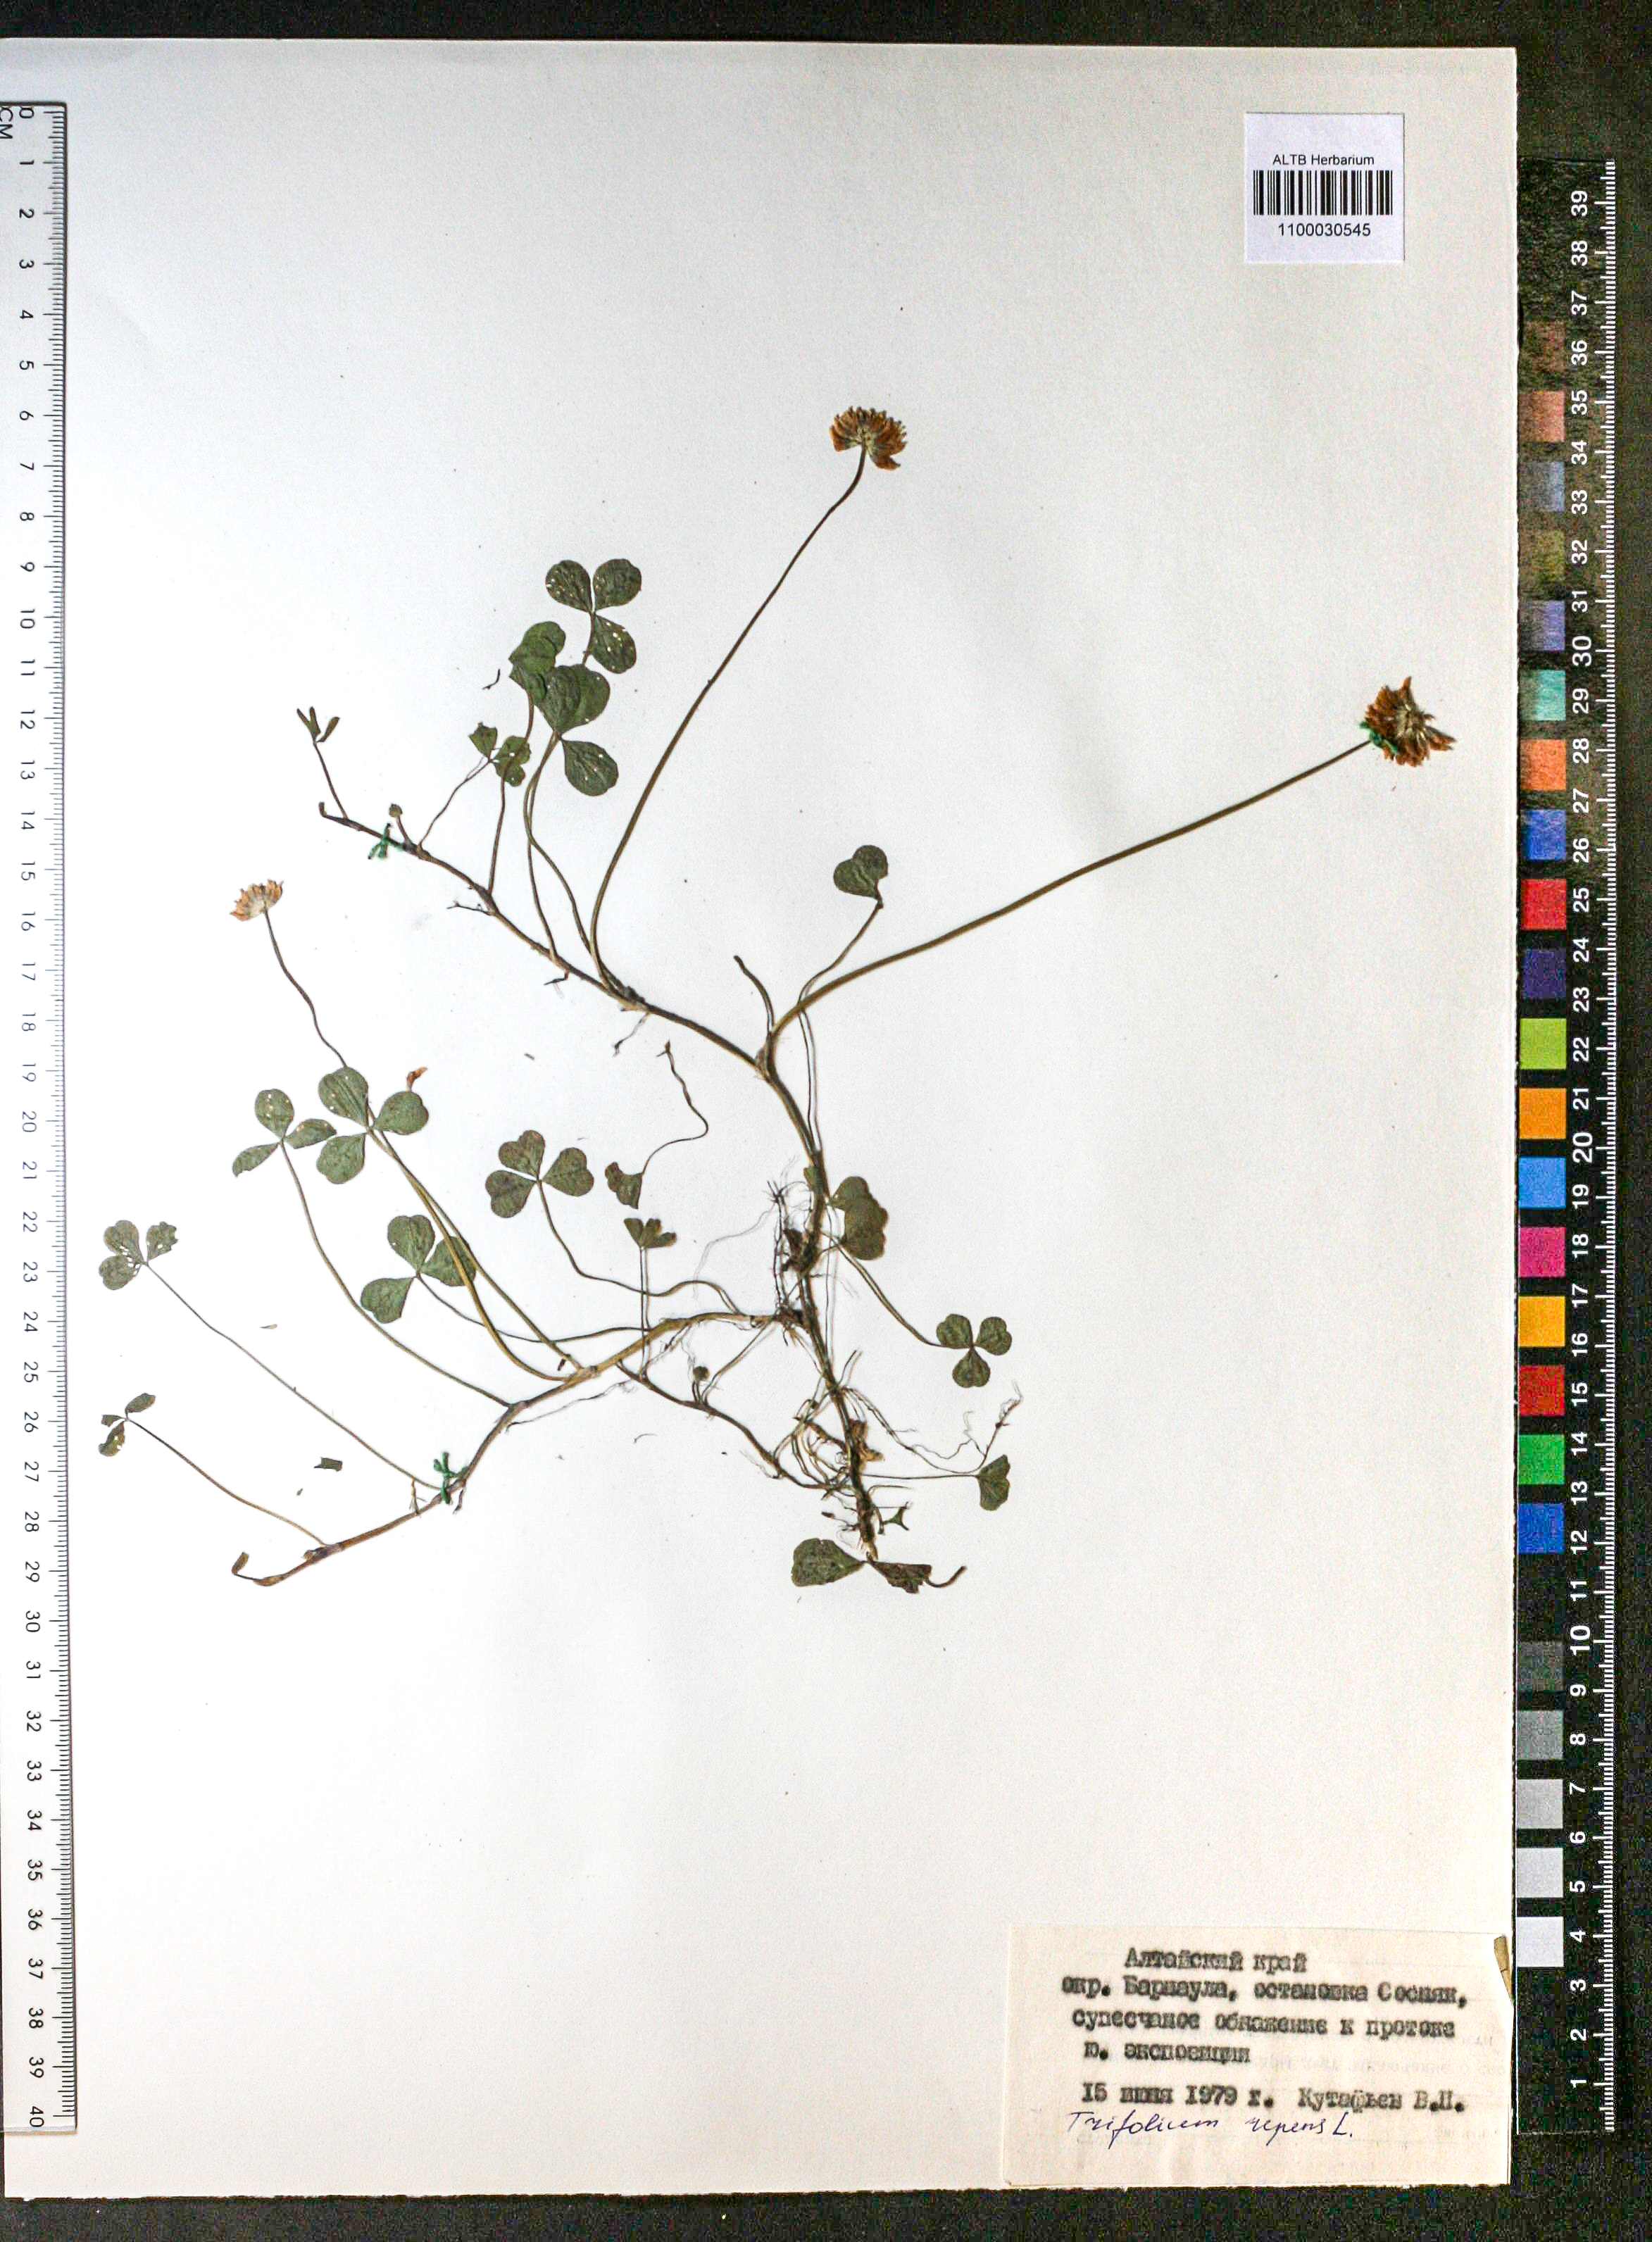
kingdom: Plantae
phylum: Tracheophyta
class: Magnoliopsida
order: Fabales
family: Fabaceae
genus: Trifolium
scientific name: Trifolium repens
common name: White clover
